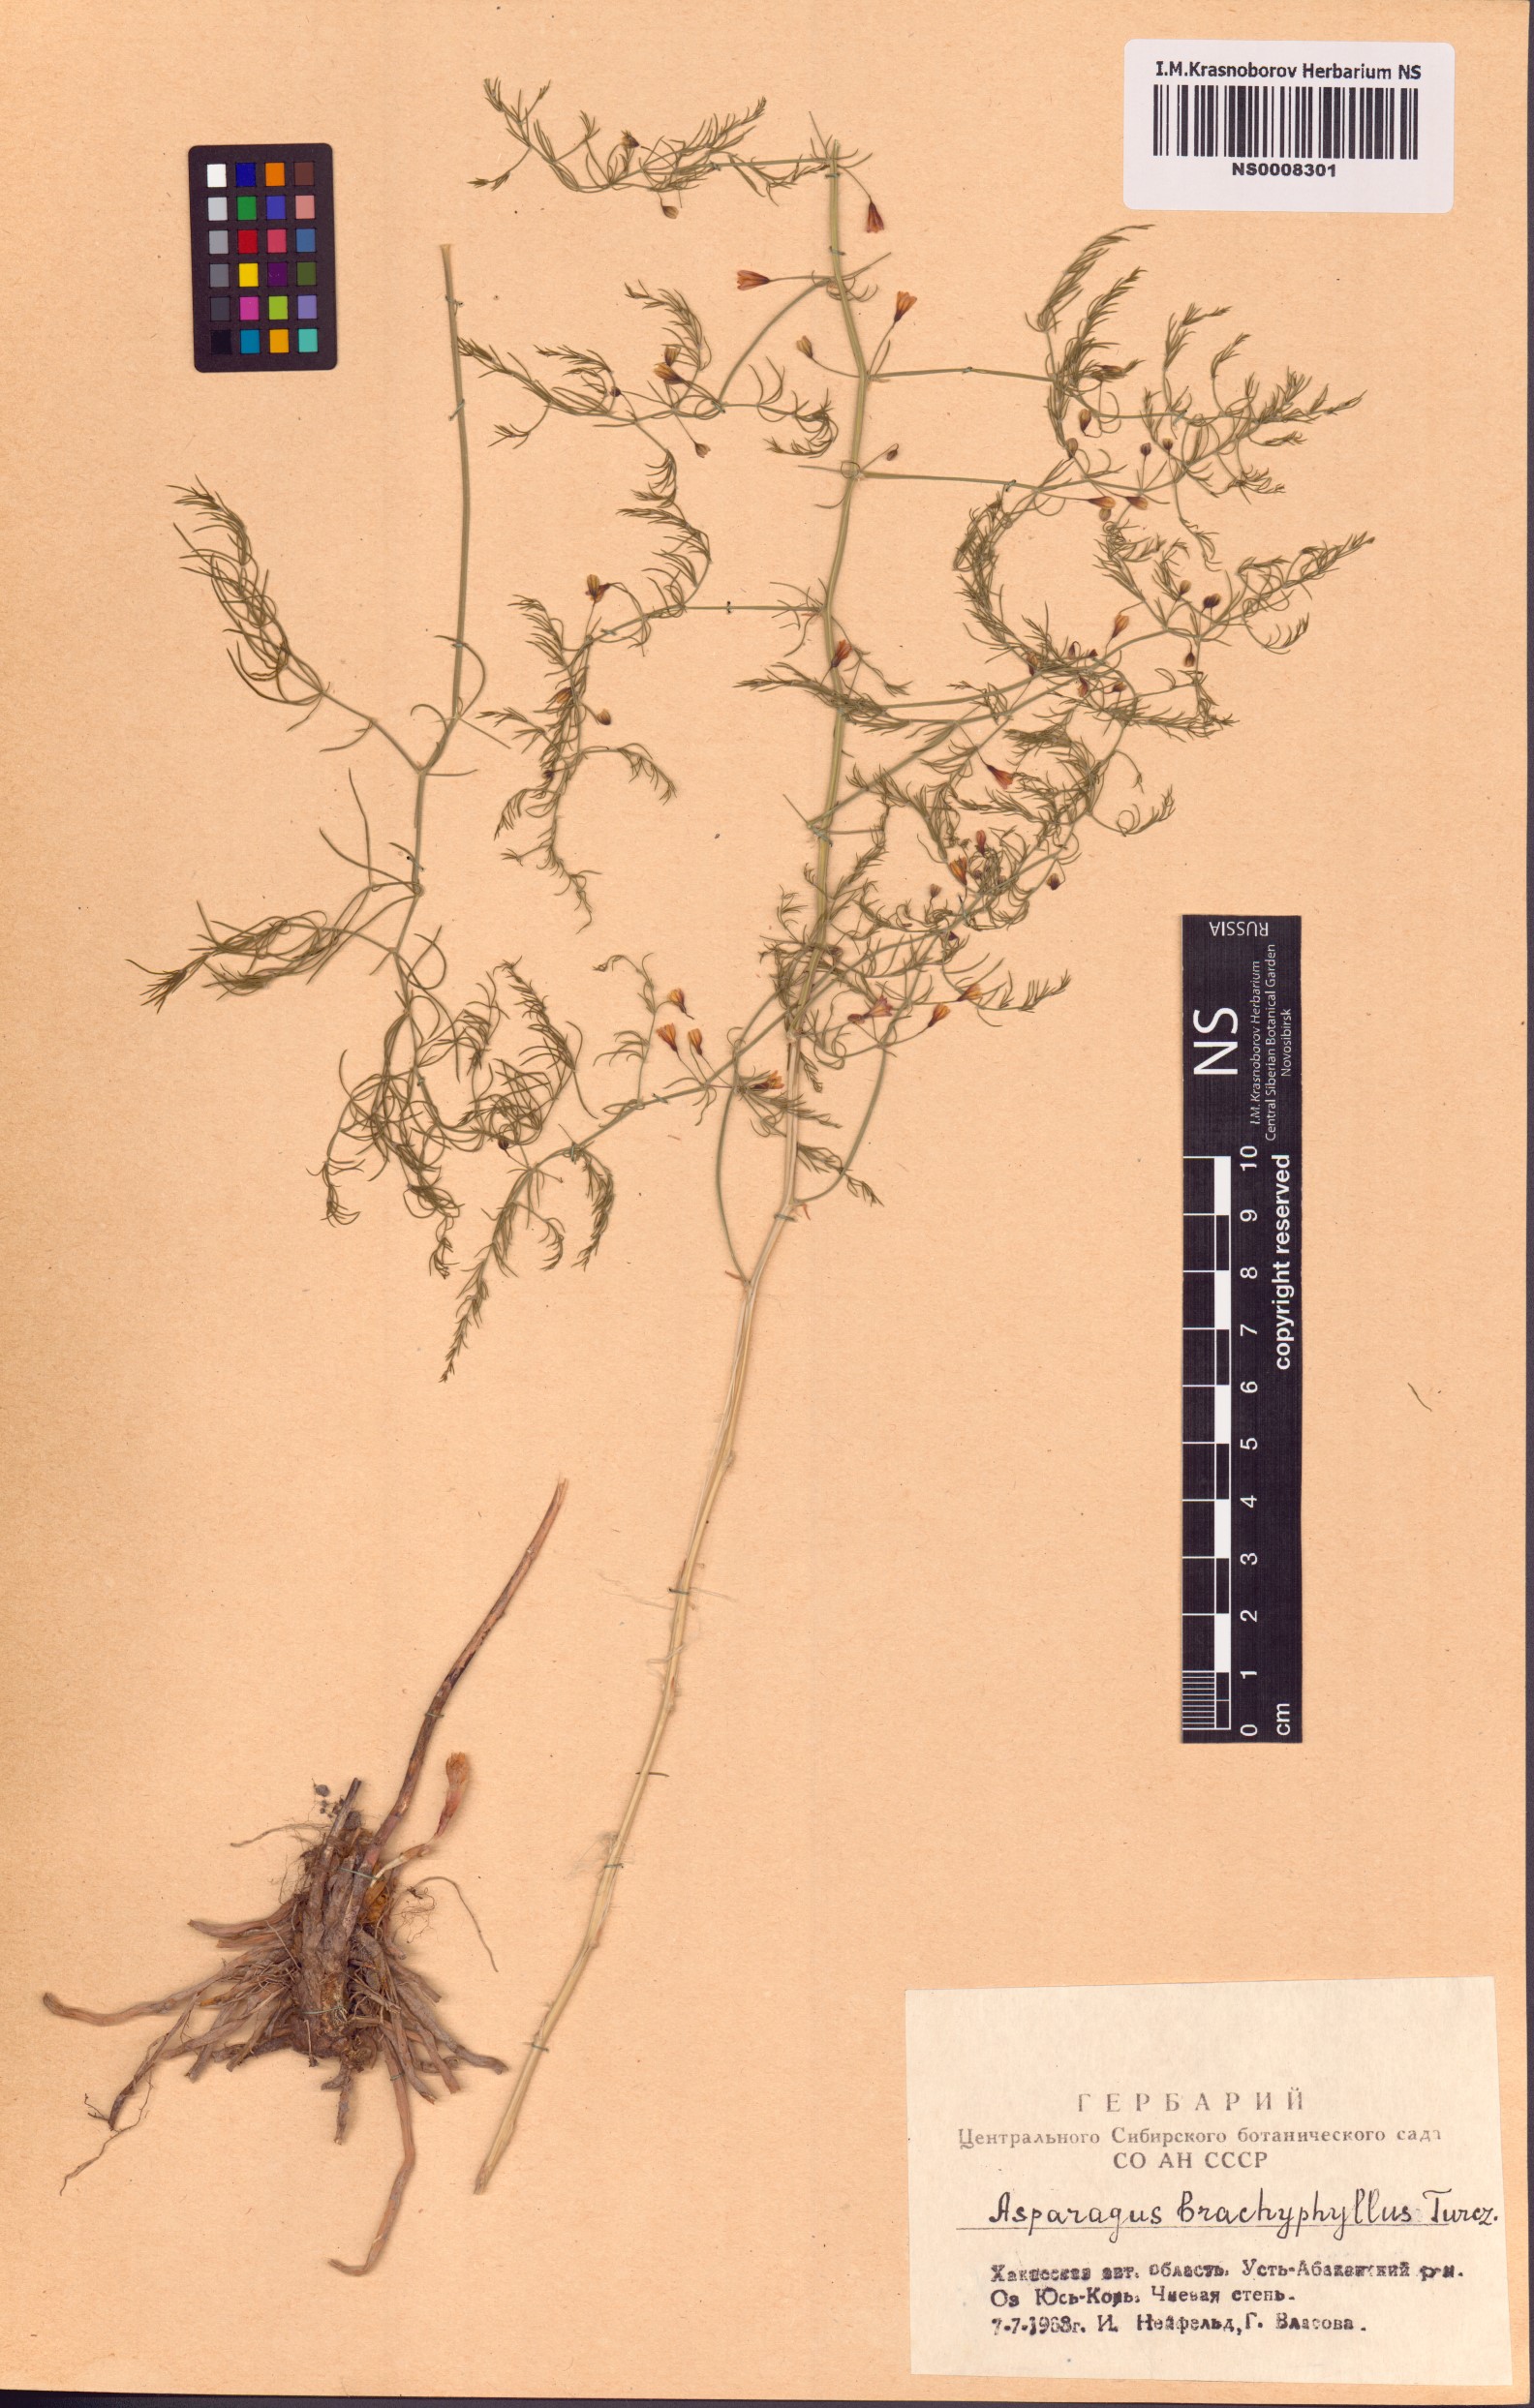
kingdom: Plantae
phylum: Tracheophyta
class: Liliopsida
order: Asparagales
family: Asparagaceae
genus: Asparagus
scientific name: Asparagus brachyphyllus
